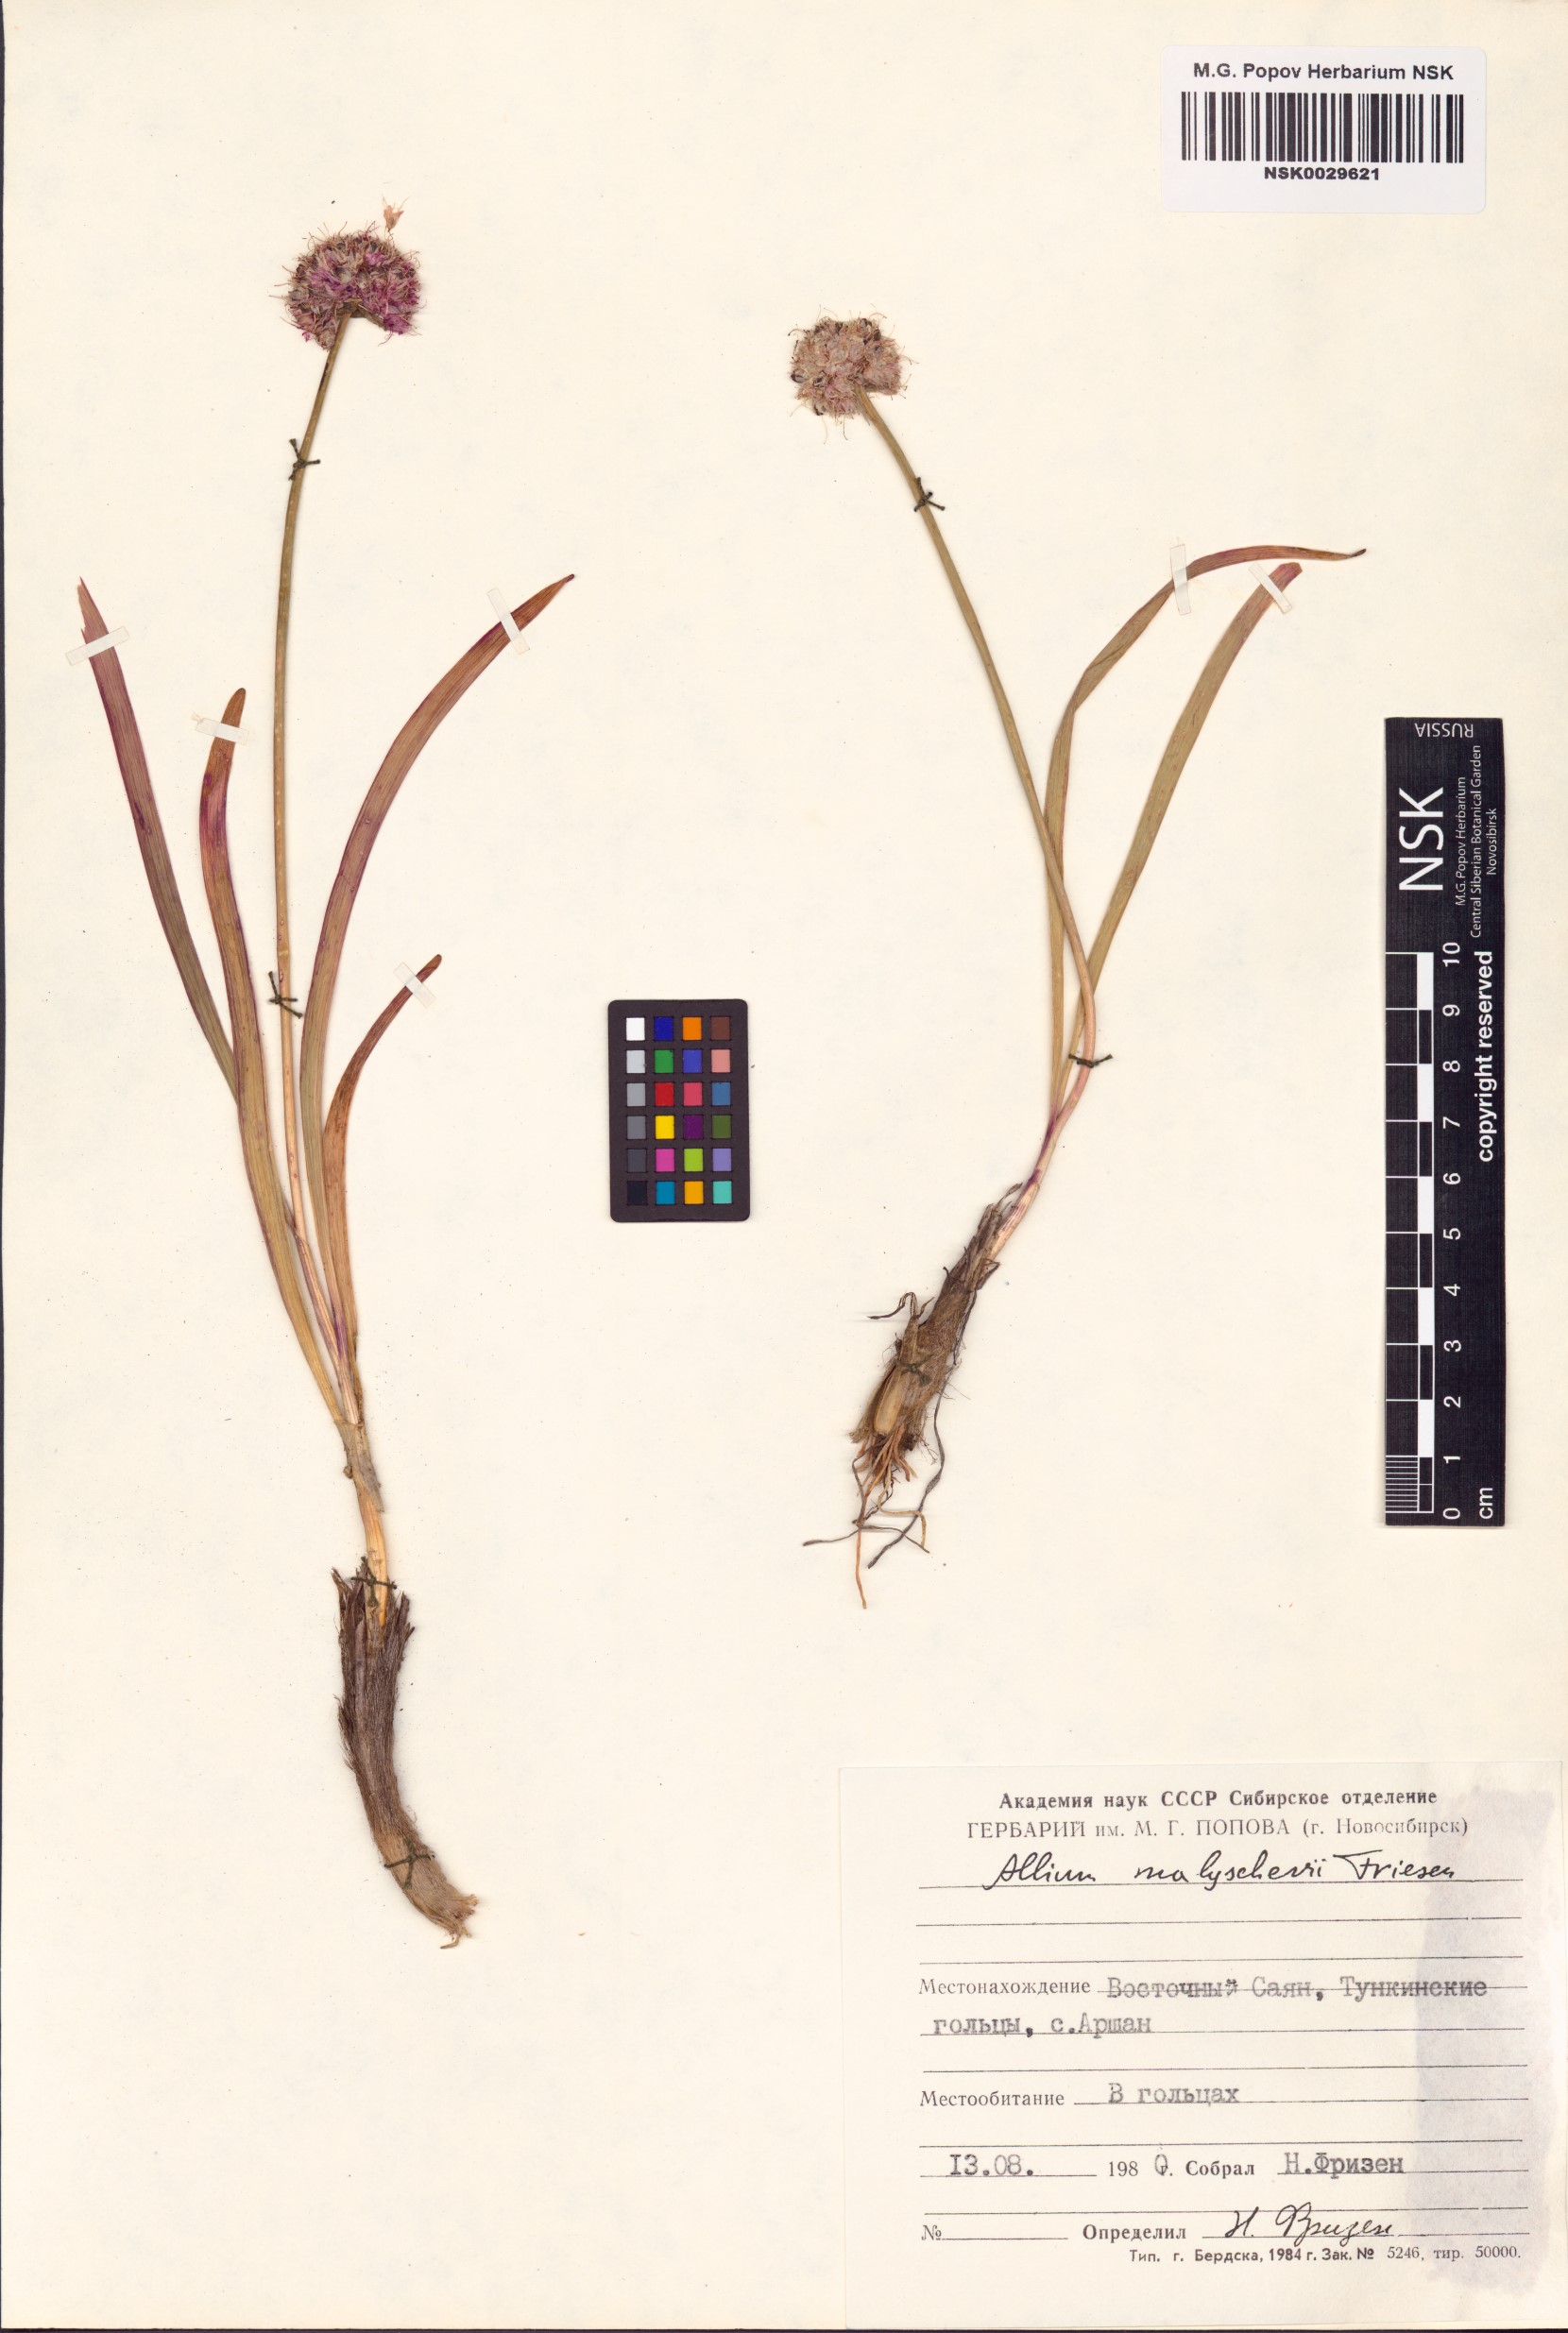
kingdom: Plantae
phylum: Tracheophyta
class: Liliopsida
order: Asparagales
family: Amaryllidaceae
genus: Allium
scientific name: Allium malyschevii
